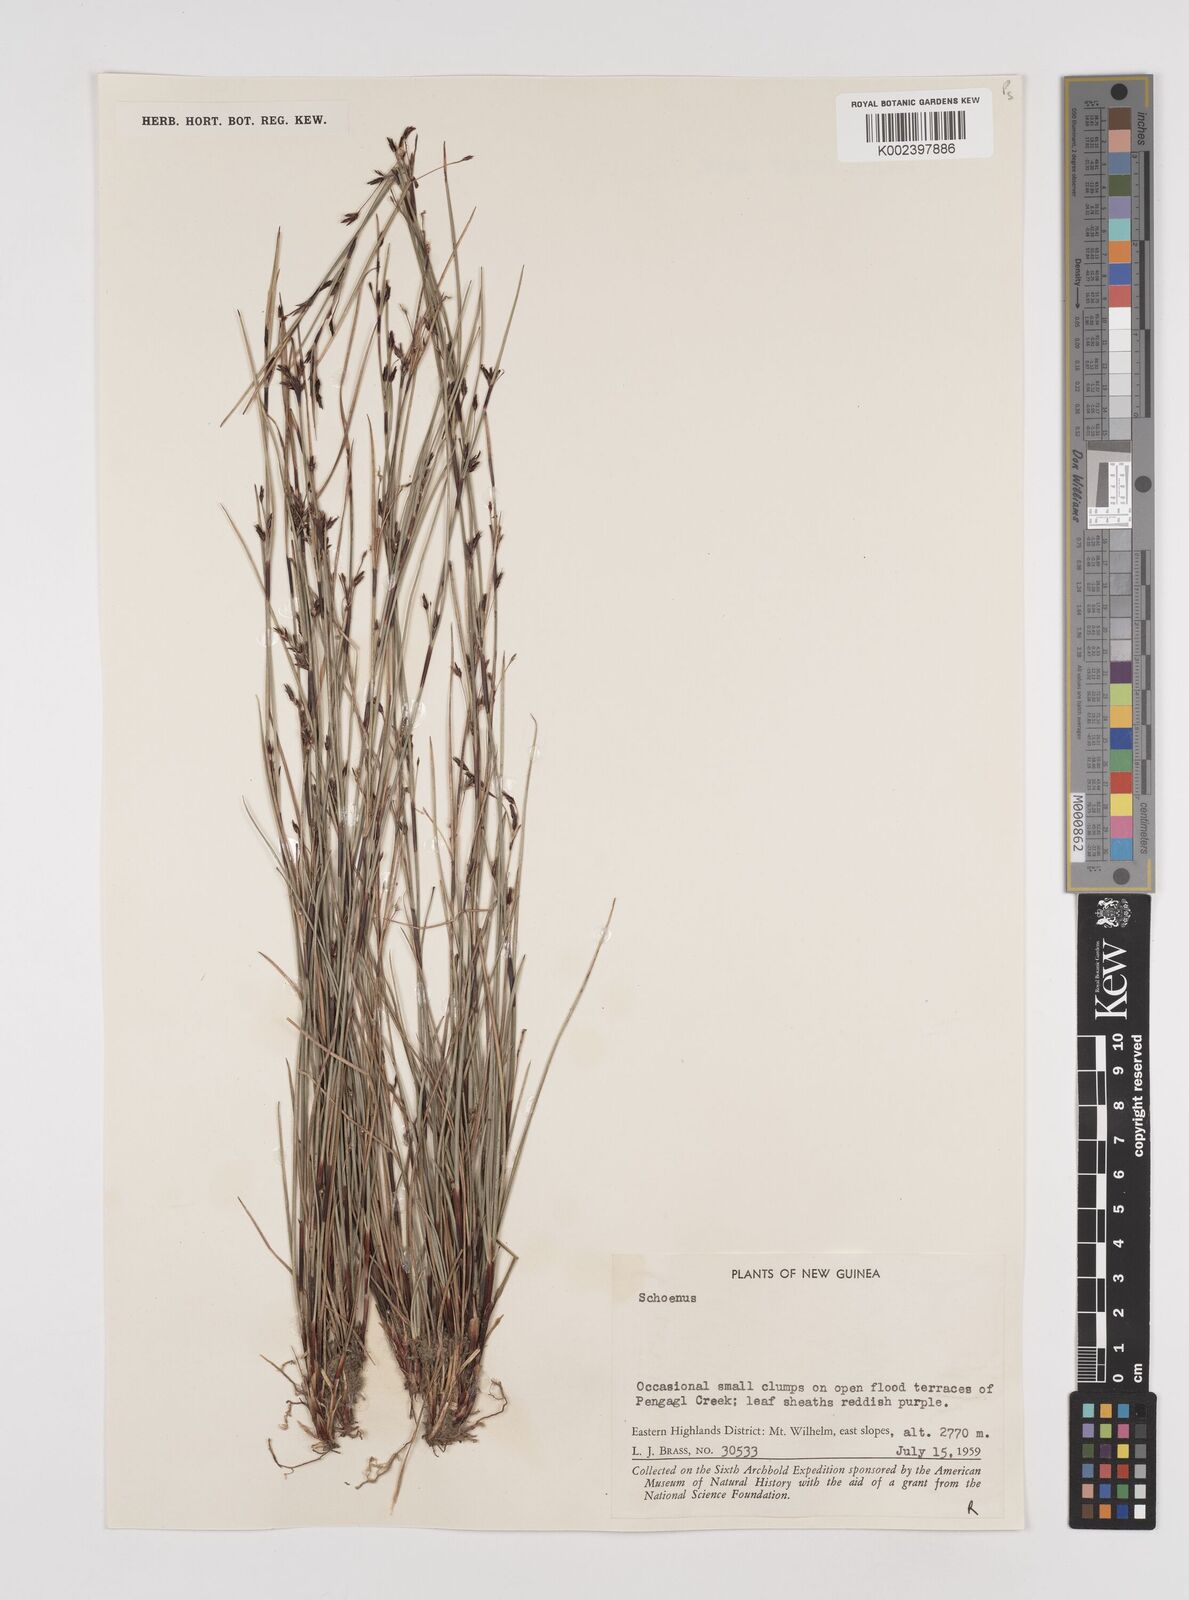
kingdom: Plantae
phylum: Tracheophyta
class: Liliopsida
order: Poales
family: Cyperaceae
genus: Schoenus
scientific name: Schoenus curvulus
